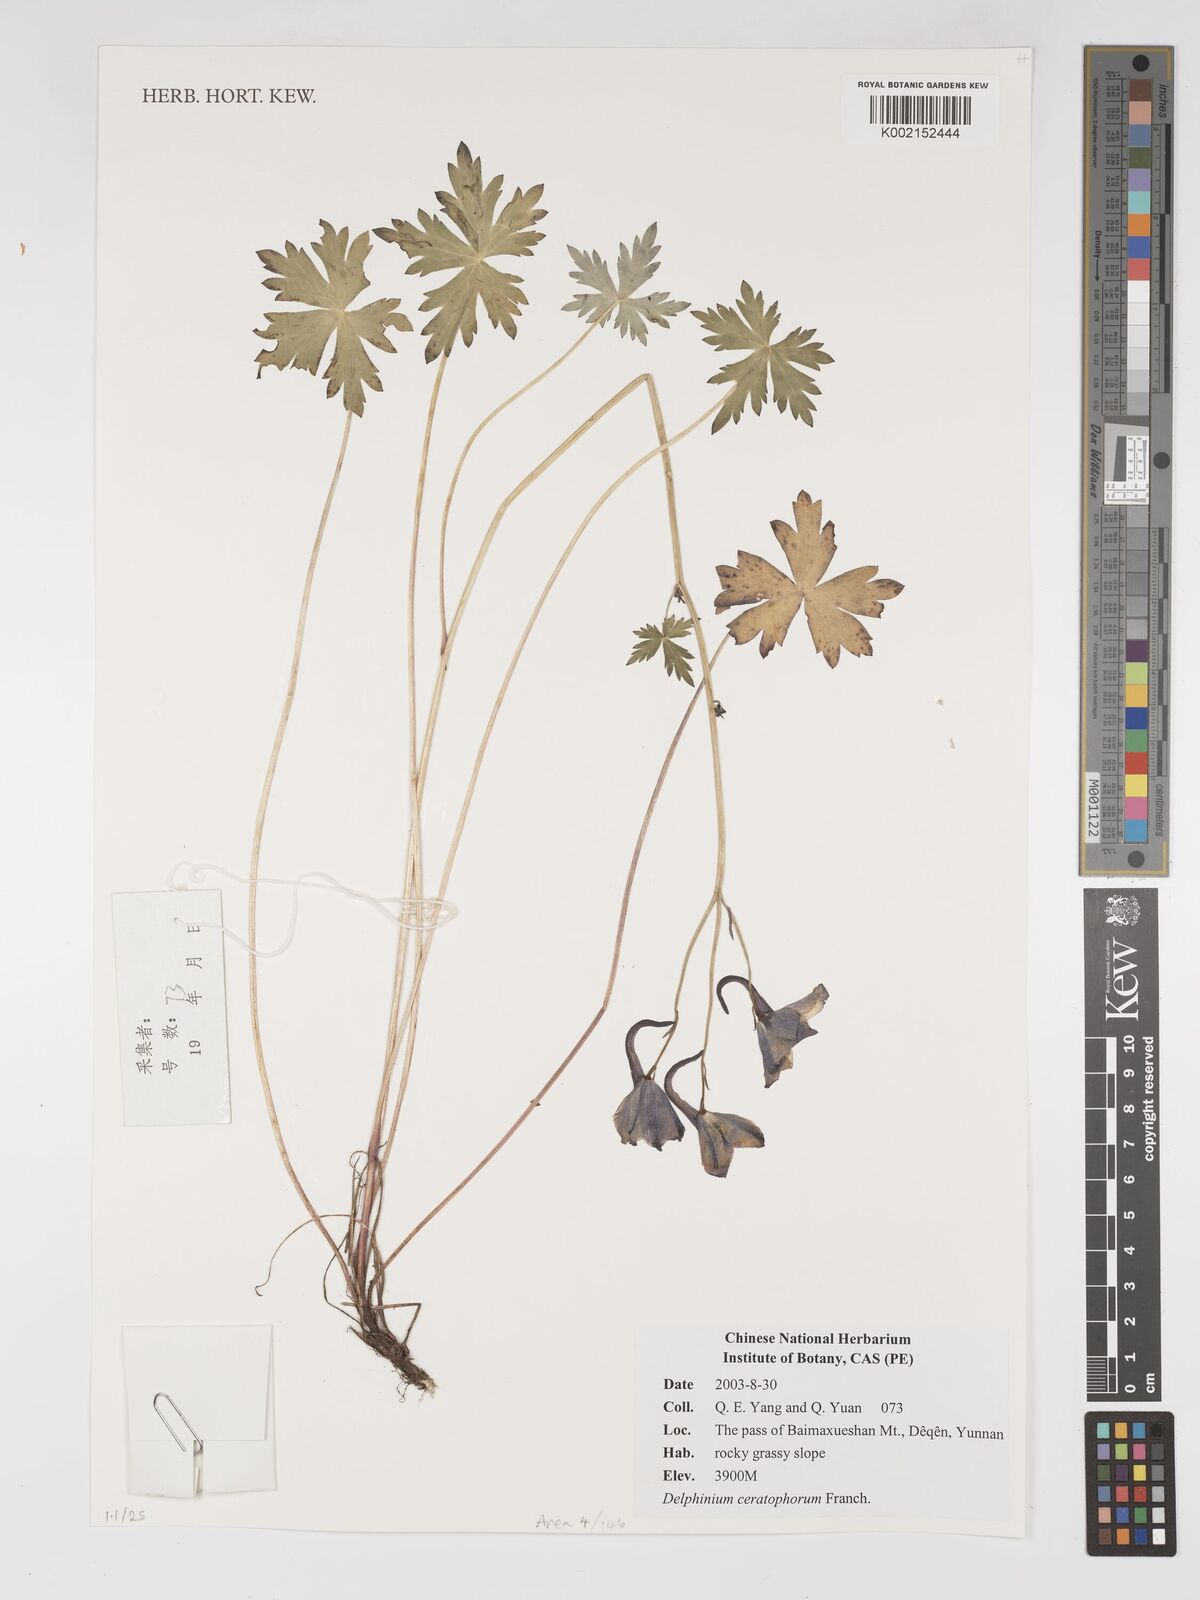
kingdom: Plantae
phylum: Tracheophyta
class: Magnoliopsida
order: Ranunculales
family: Ranunculaceae
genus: Delphinium
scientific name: Delphinium ceratophorum
